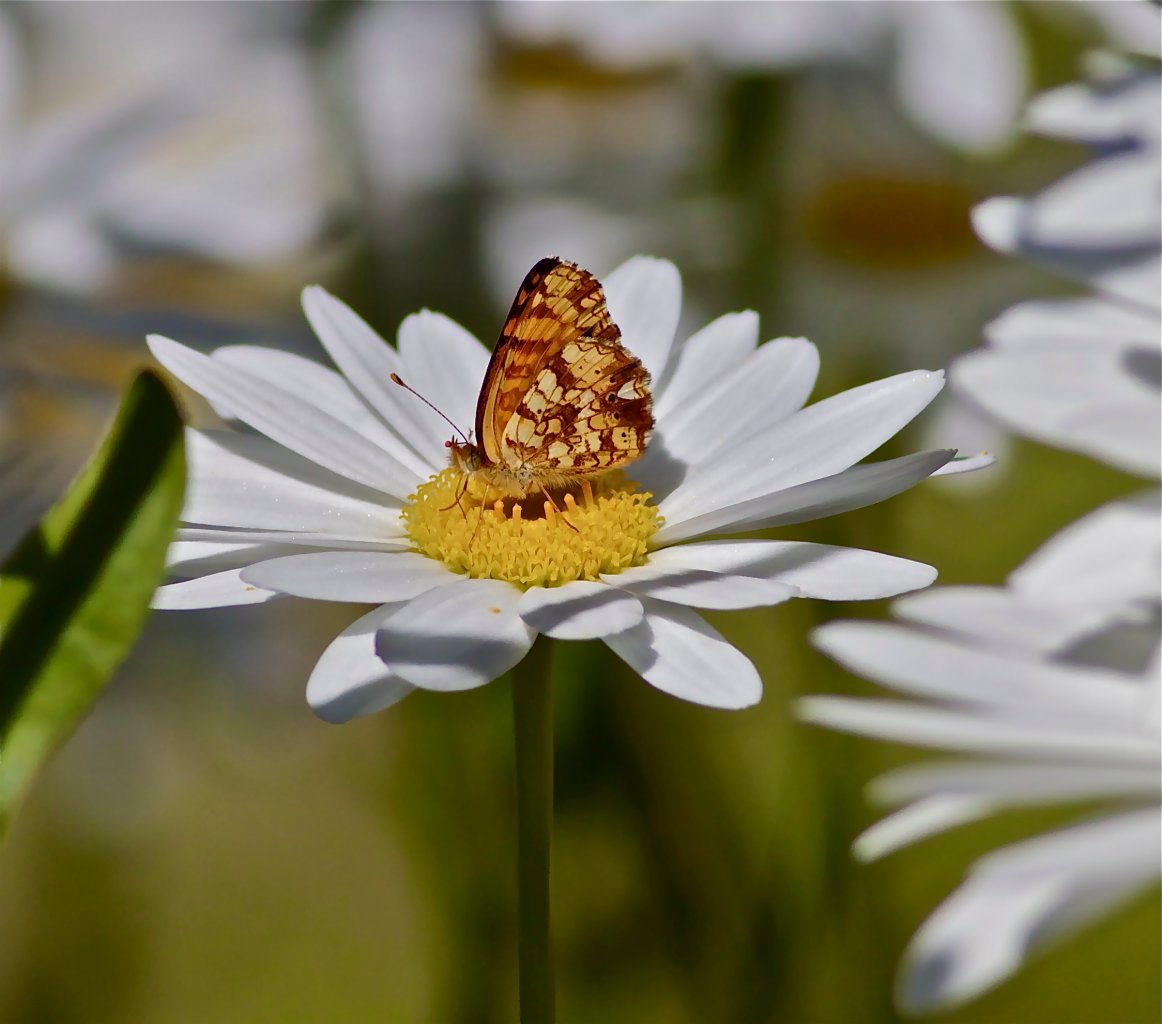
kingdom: Animalia
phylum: Arthropoda
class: Insecta
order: Lepidoptera
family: Nymphalidae
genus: Eresia
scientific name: Eresia aveyrona
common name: Mylitta Crescent
